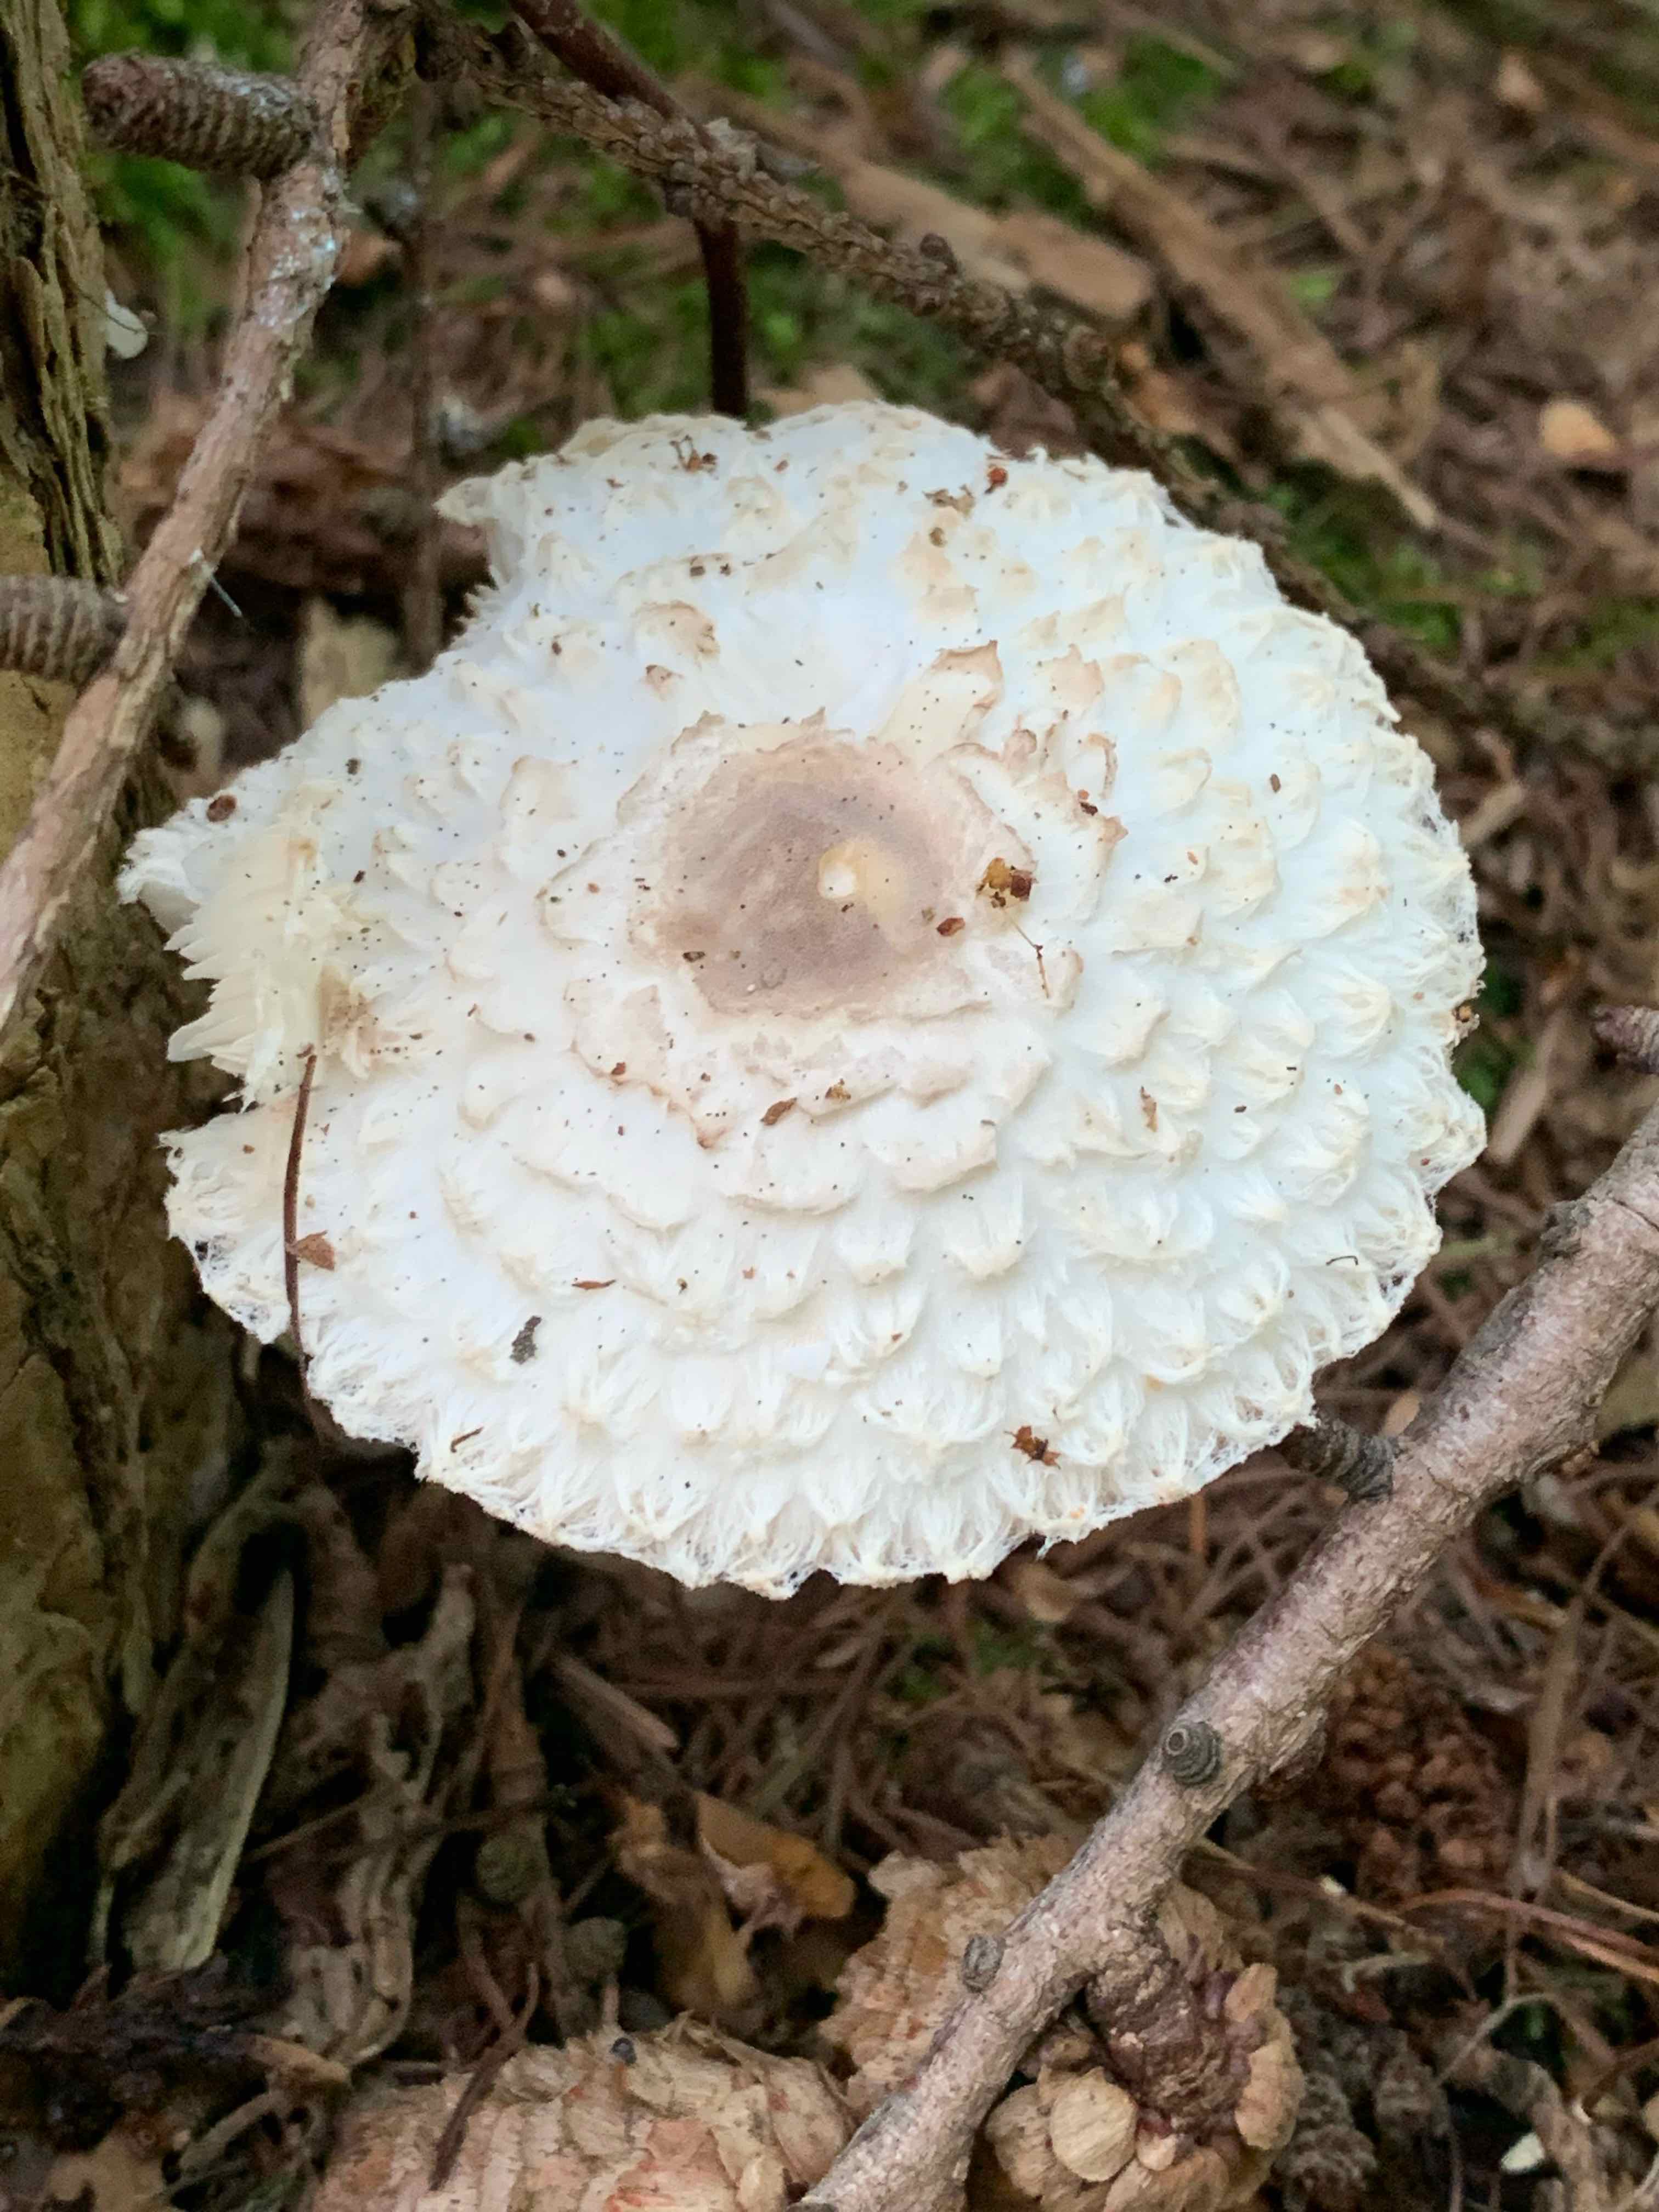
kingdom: Fungi
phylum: Basidiomycota
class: Agaricomycetes
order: Agaricales
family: Agaricaceae
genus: Leucoagaricus
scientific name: Leucoagaricus nympharum
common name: gran-silkehat
